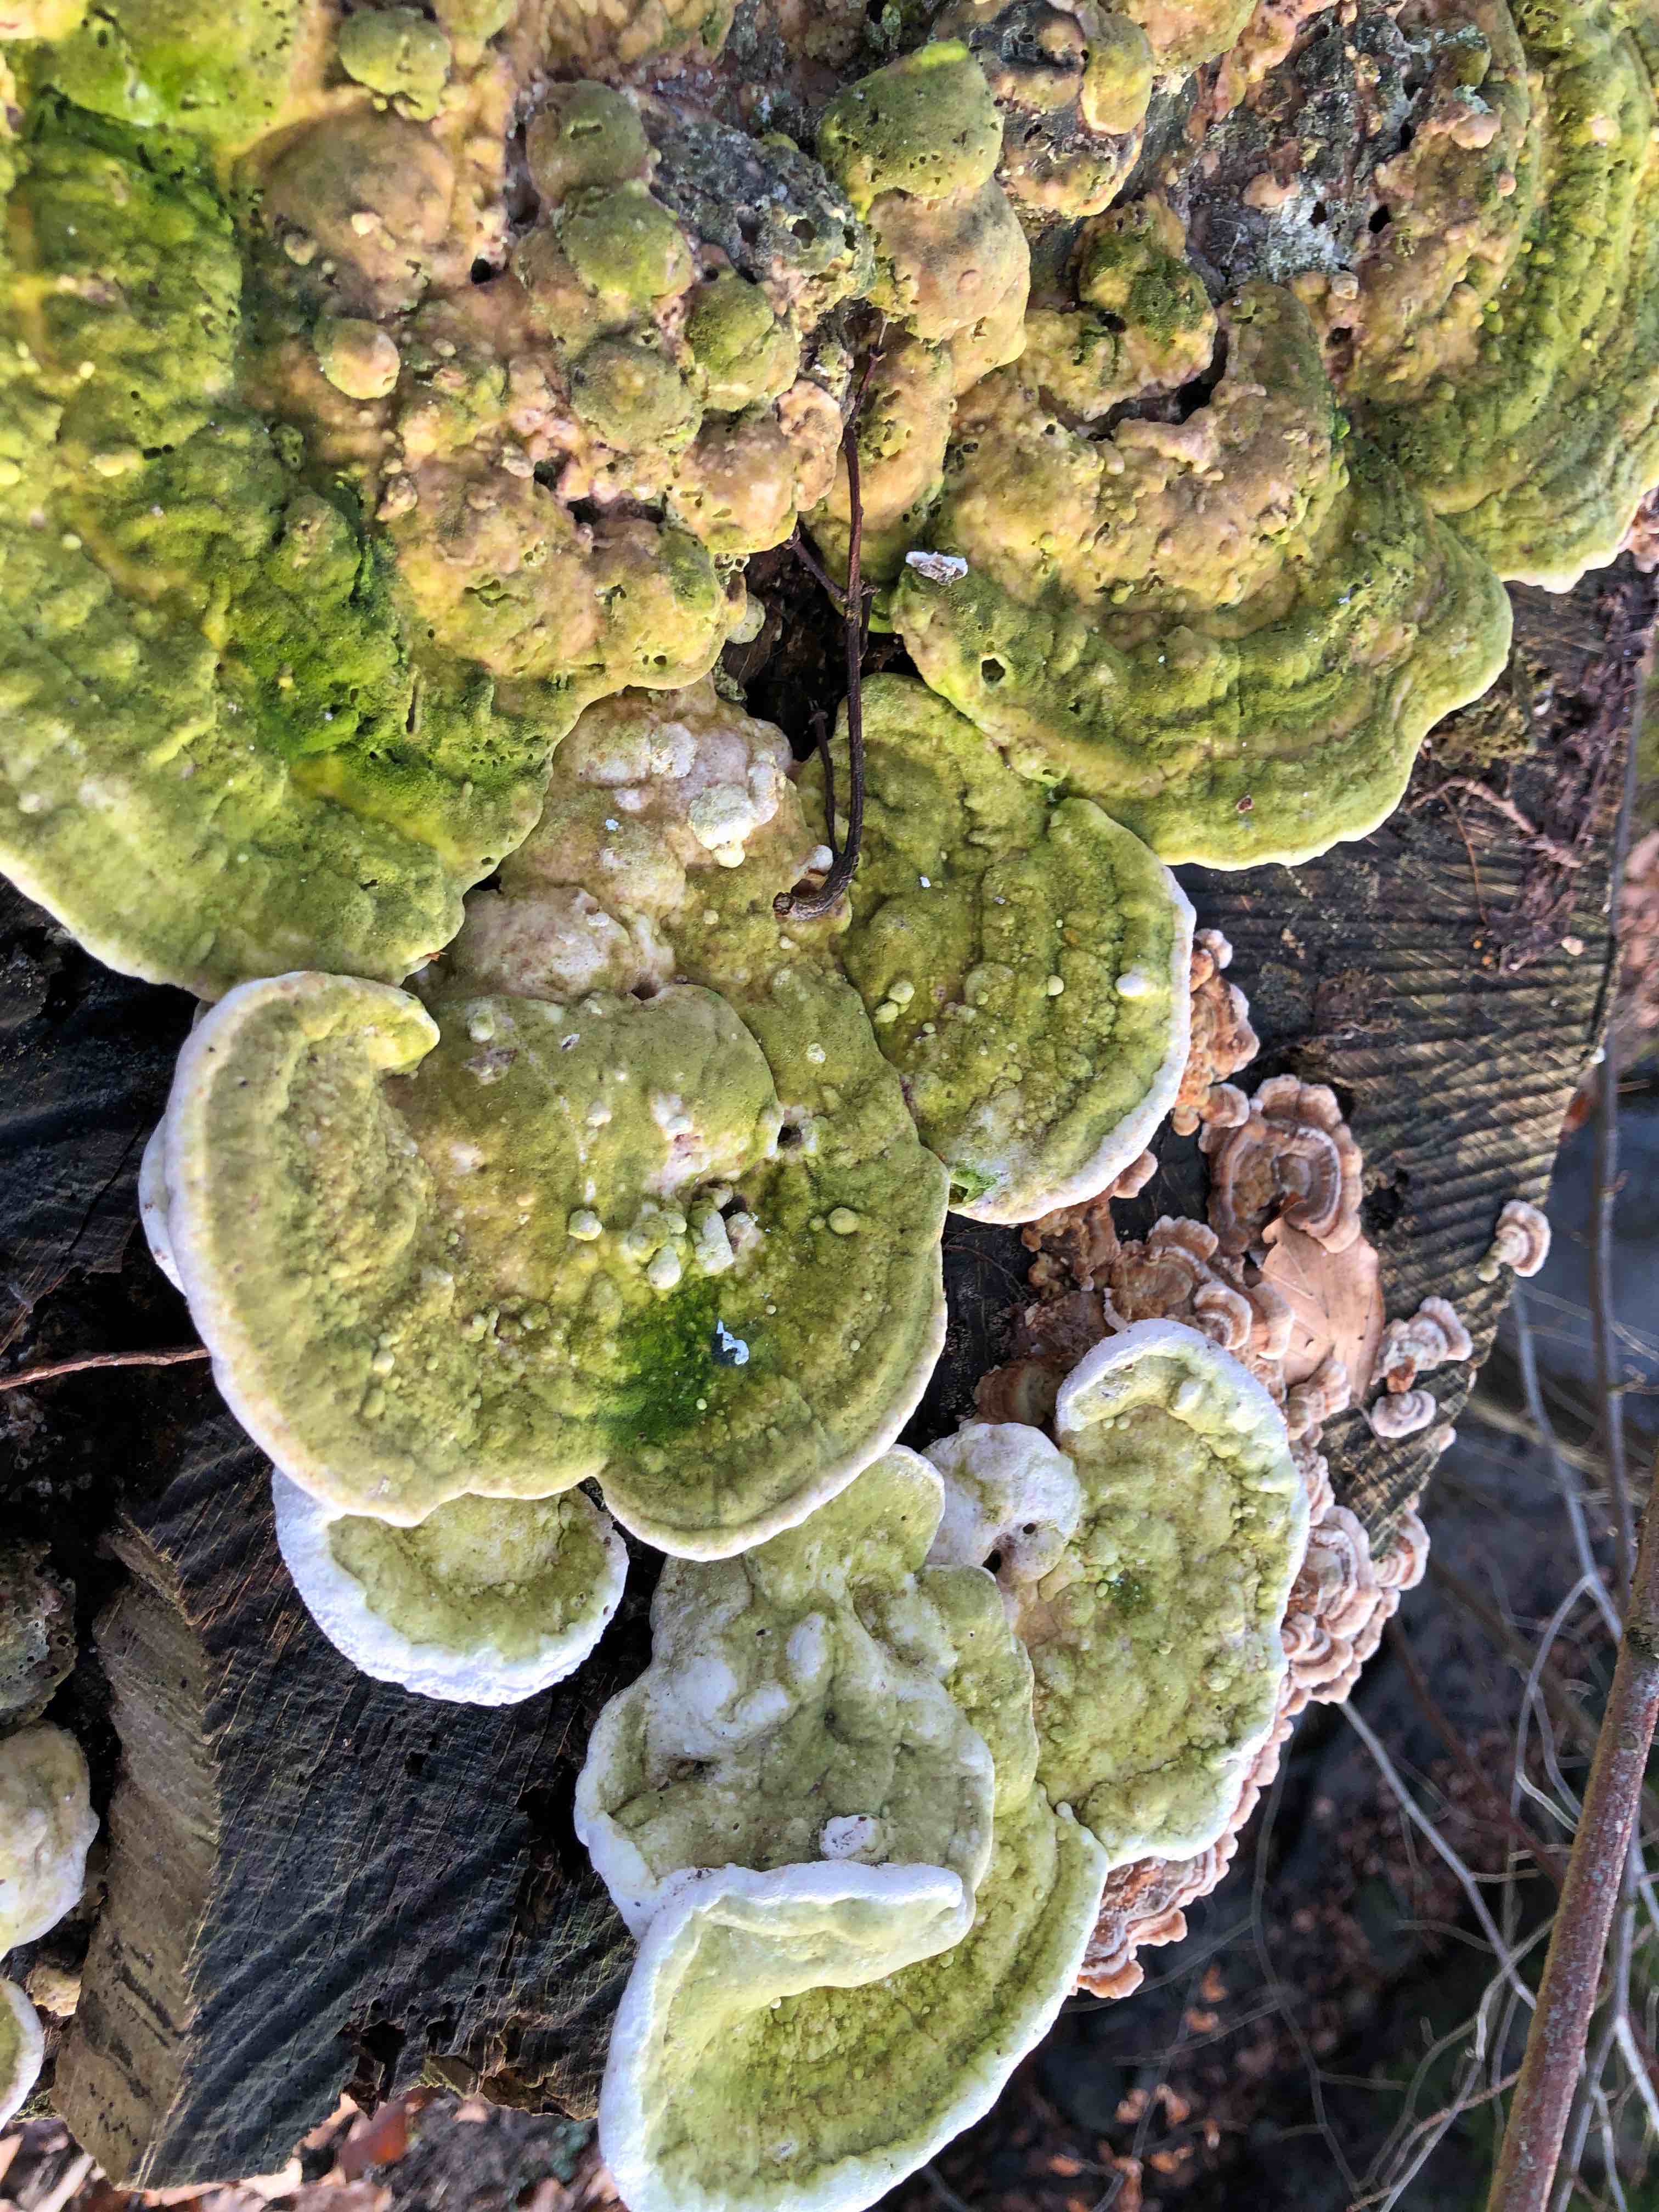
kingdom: Fungi
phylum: Basidiomycota
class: Agaricomycetes
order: Polyporales
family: Polyporaceae
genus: Trametes
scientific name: Trametes gibbosa
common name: puklet læderporesvamp
